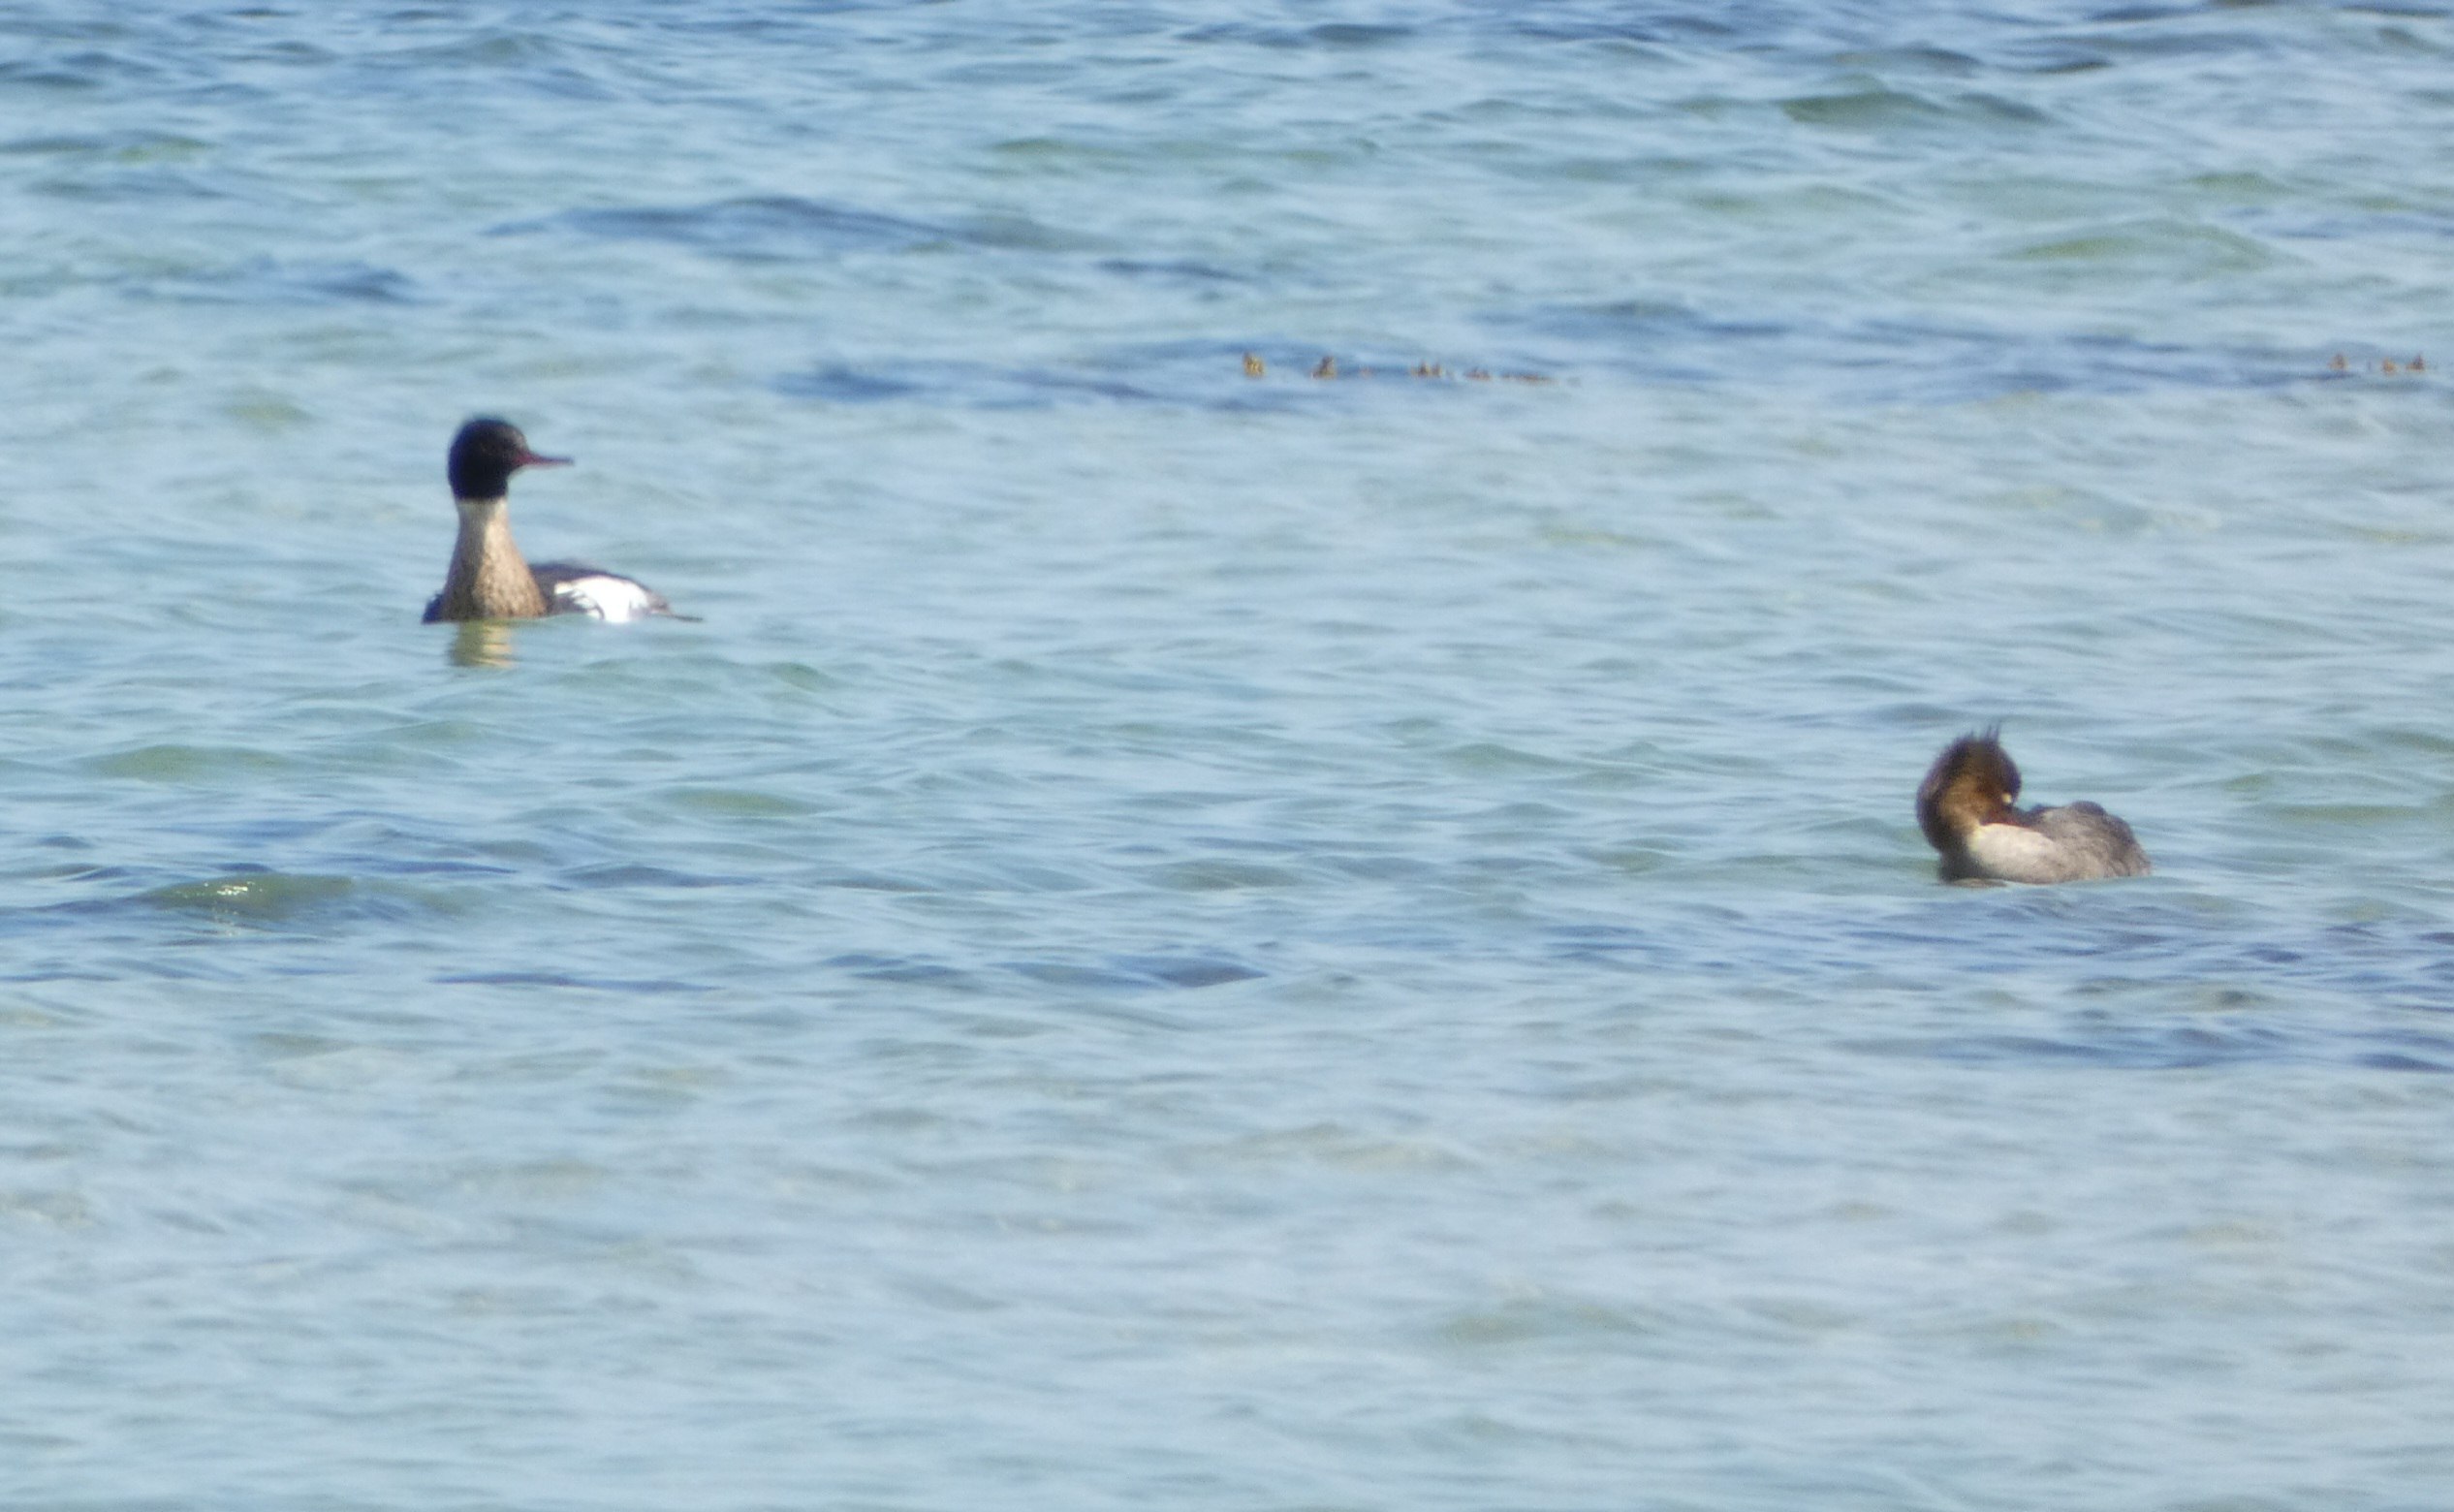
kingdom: Animalia
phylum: Chordata
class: Aves
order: Anseriformes
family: Anatidae
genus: Mergus
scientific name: Mergus serrator
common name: Toppet skallesluger
